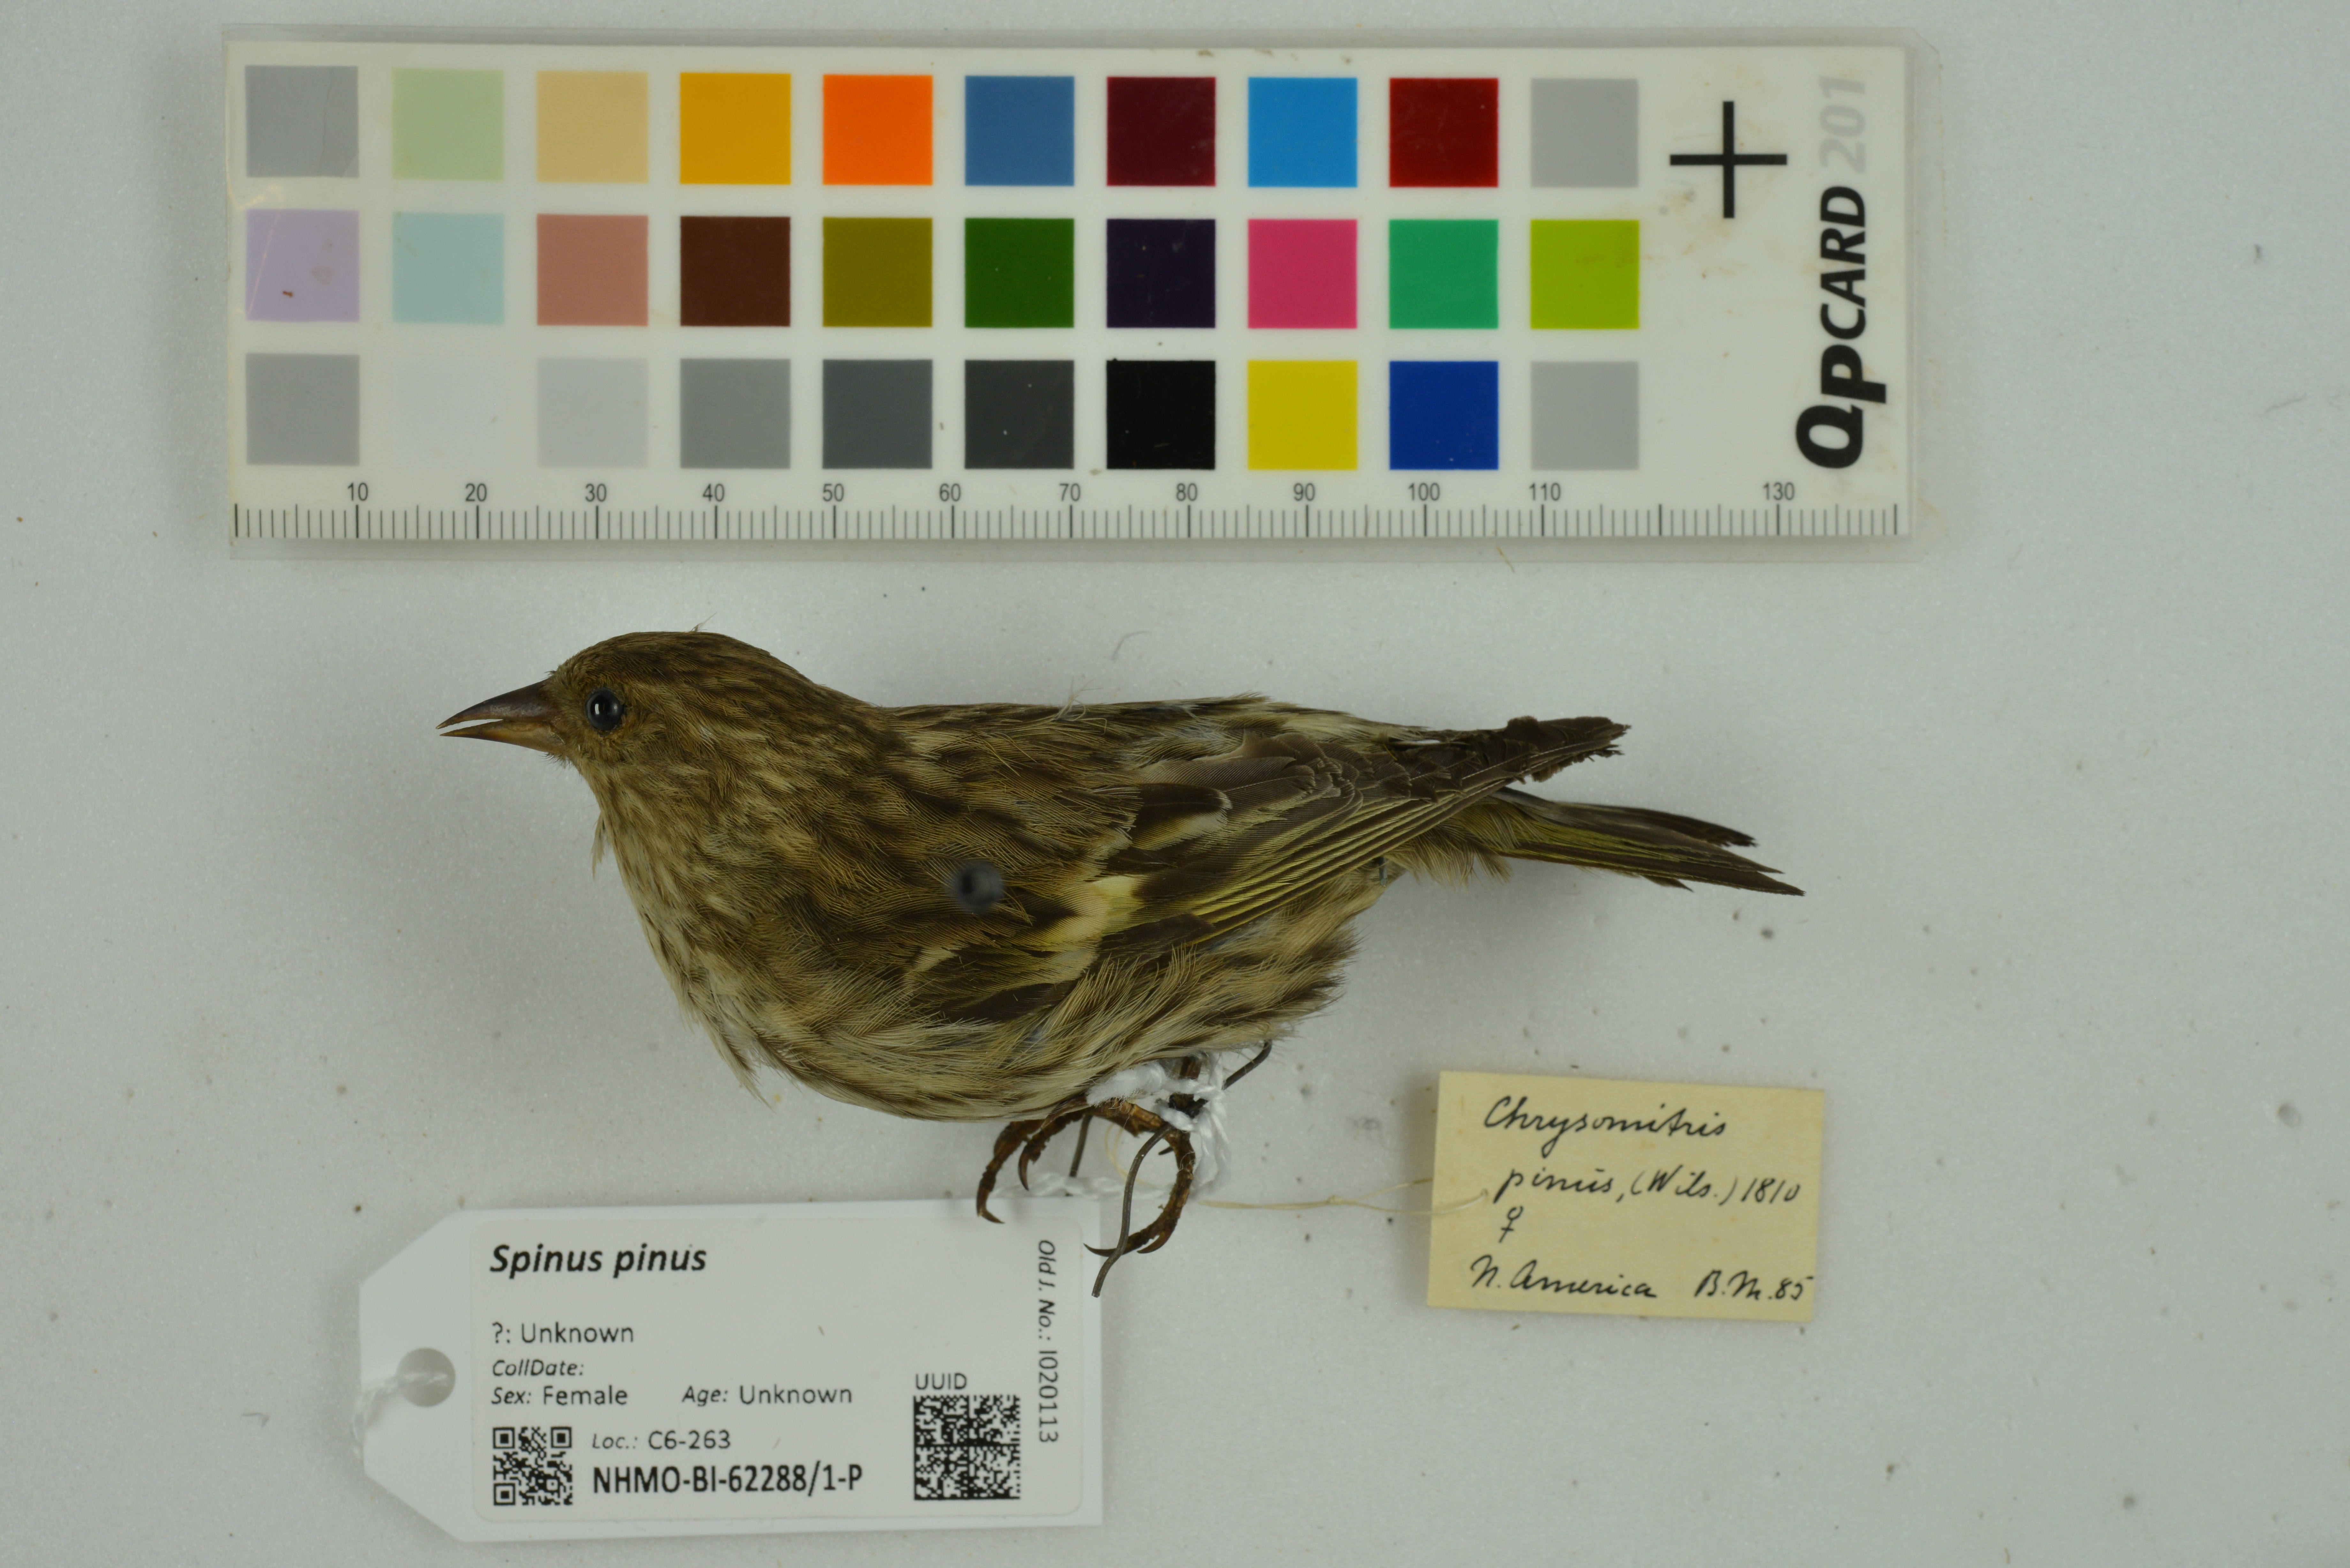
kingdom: Animalia
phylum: Chordata
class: Aves
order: Passeriformes
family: Fringillidae
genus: Spinus
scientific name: Spinus pinus
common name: Pine siskin
